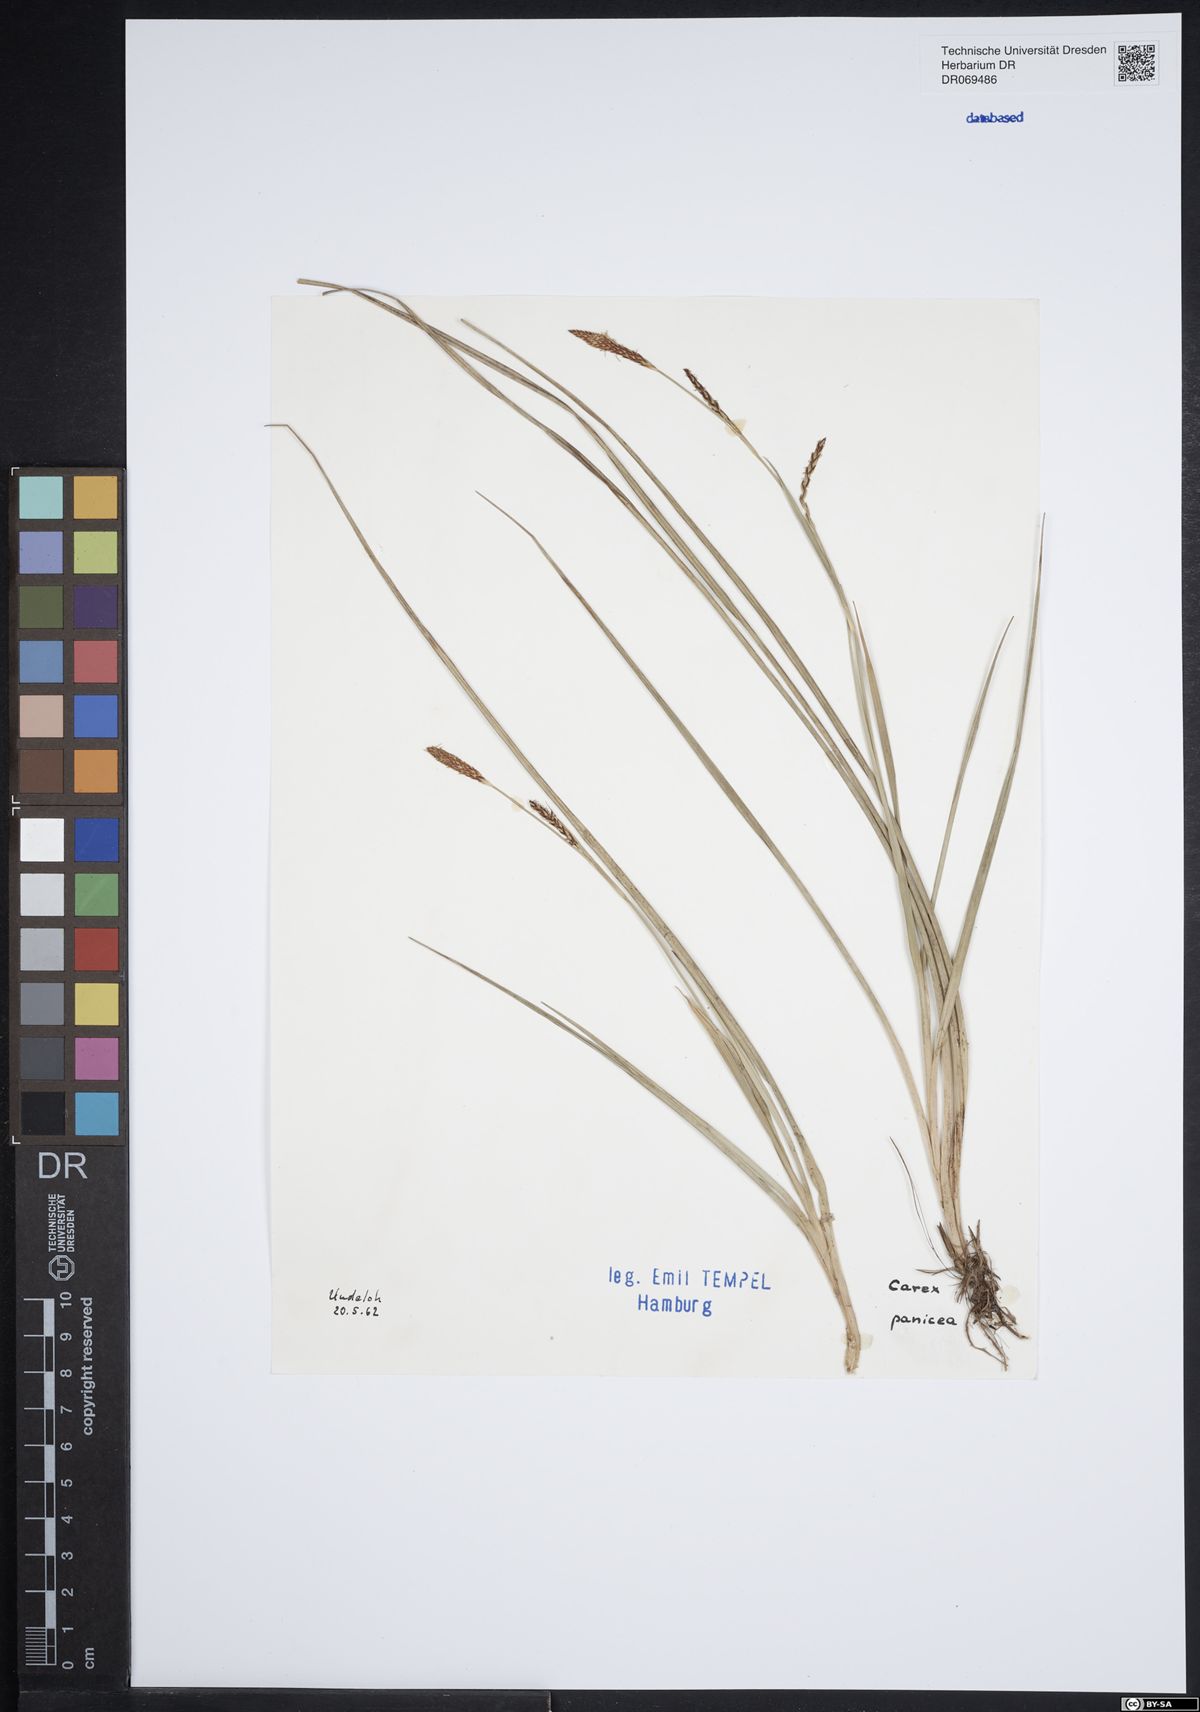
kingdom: Plantae
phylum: Tracheophyta
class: Liliopsida
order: Poales
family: Cyperaceae
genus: Carex
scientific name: Carex panicea
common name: Carnation sedge
